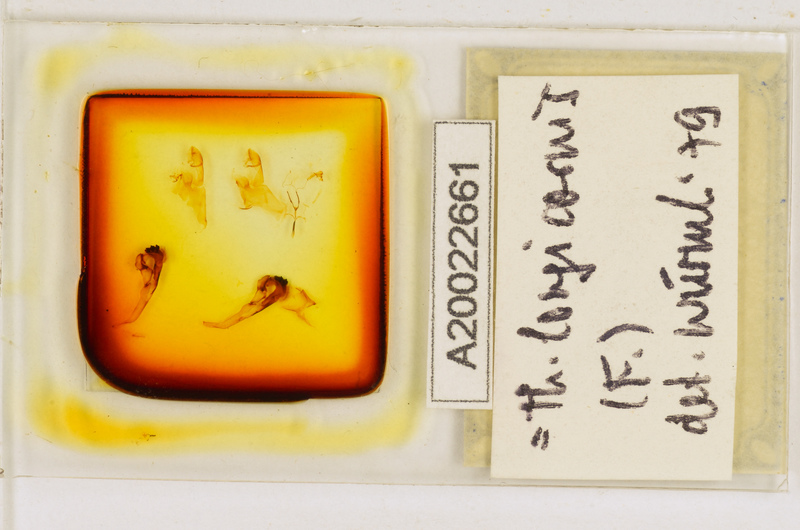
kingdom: Animalia
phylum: Arthropoda
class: Chilopoda
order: Scutigeromorpha
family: Scutigeridae
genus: Thereuopoda
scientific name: Thereuopoda longicornis
